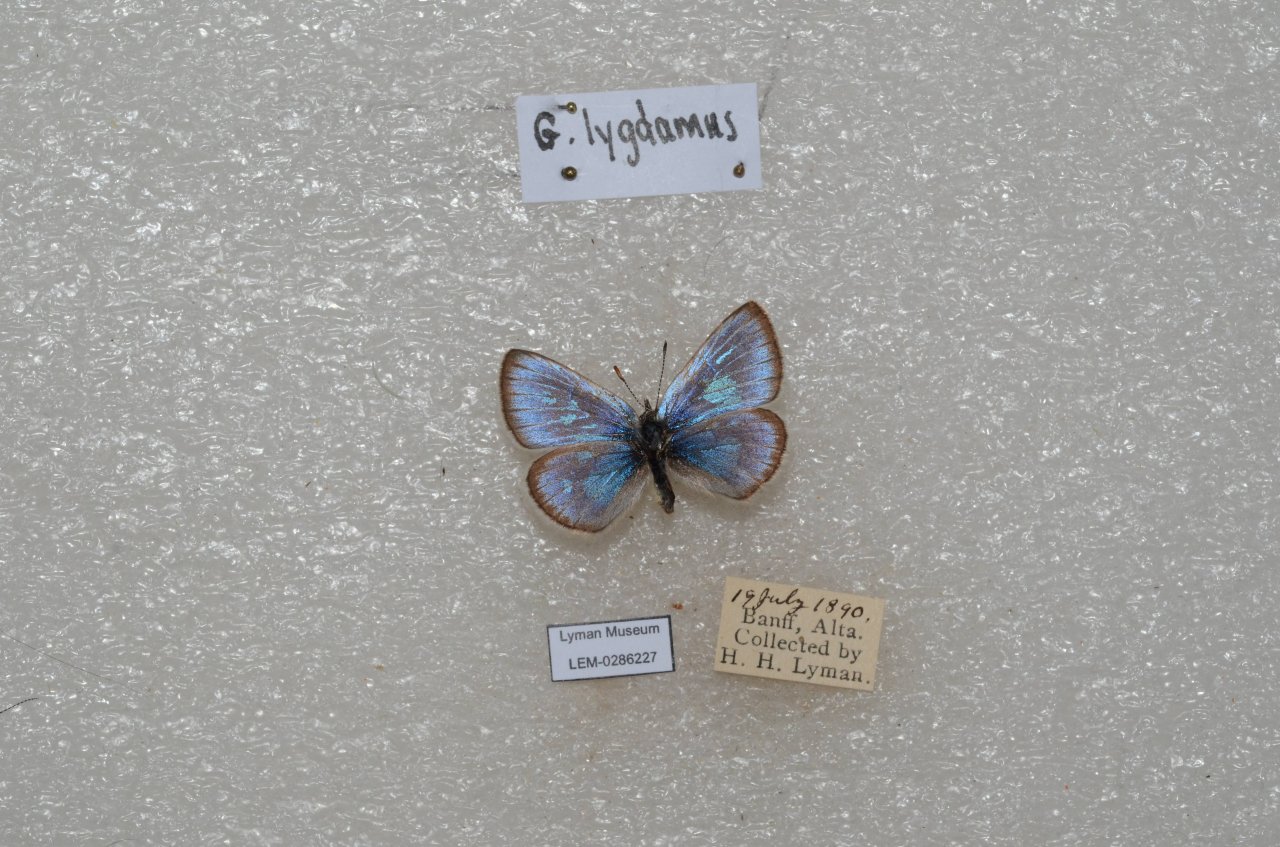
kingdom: Animalia
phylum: Arthropoda
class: Insecta
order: Lepidoptera
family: Lycaenidae
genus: Glaucopsyche
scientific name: Glaucopsyche lygdamus
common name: Silvery Blue
